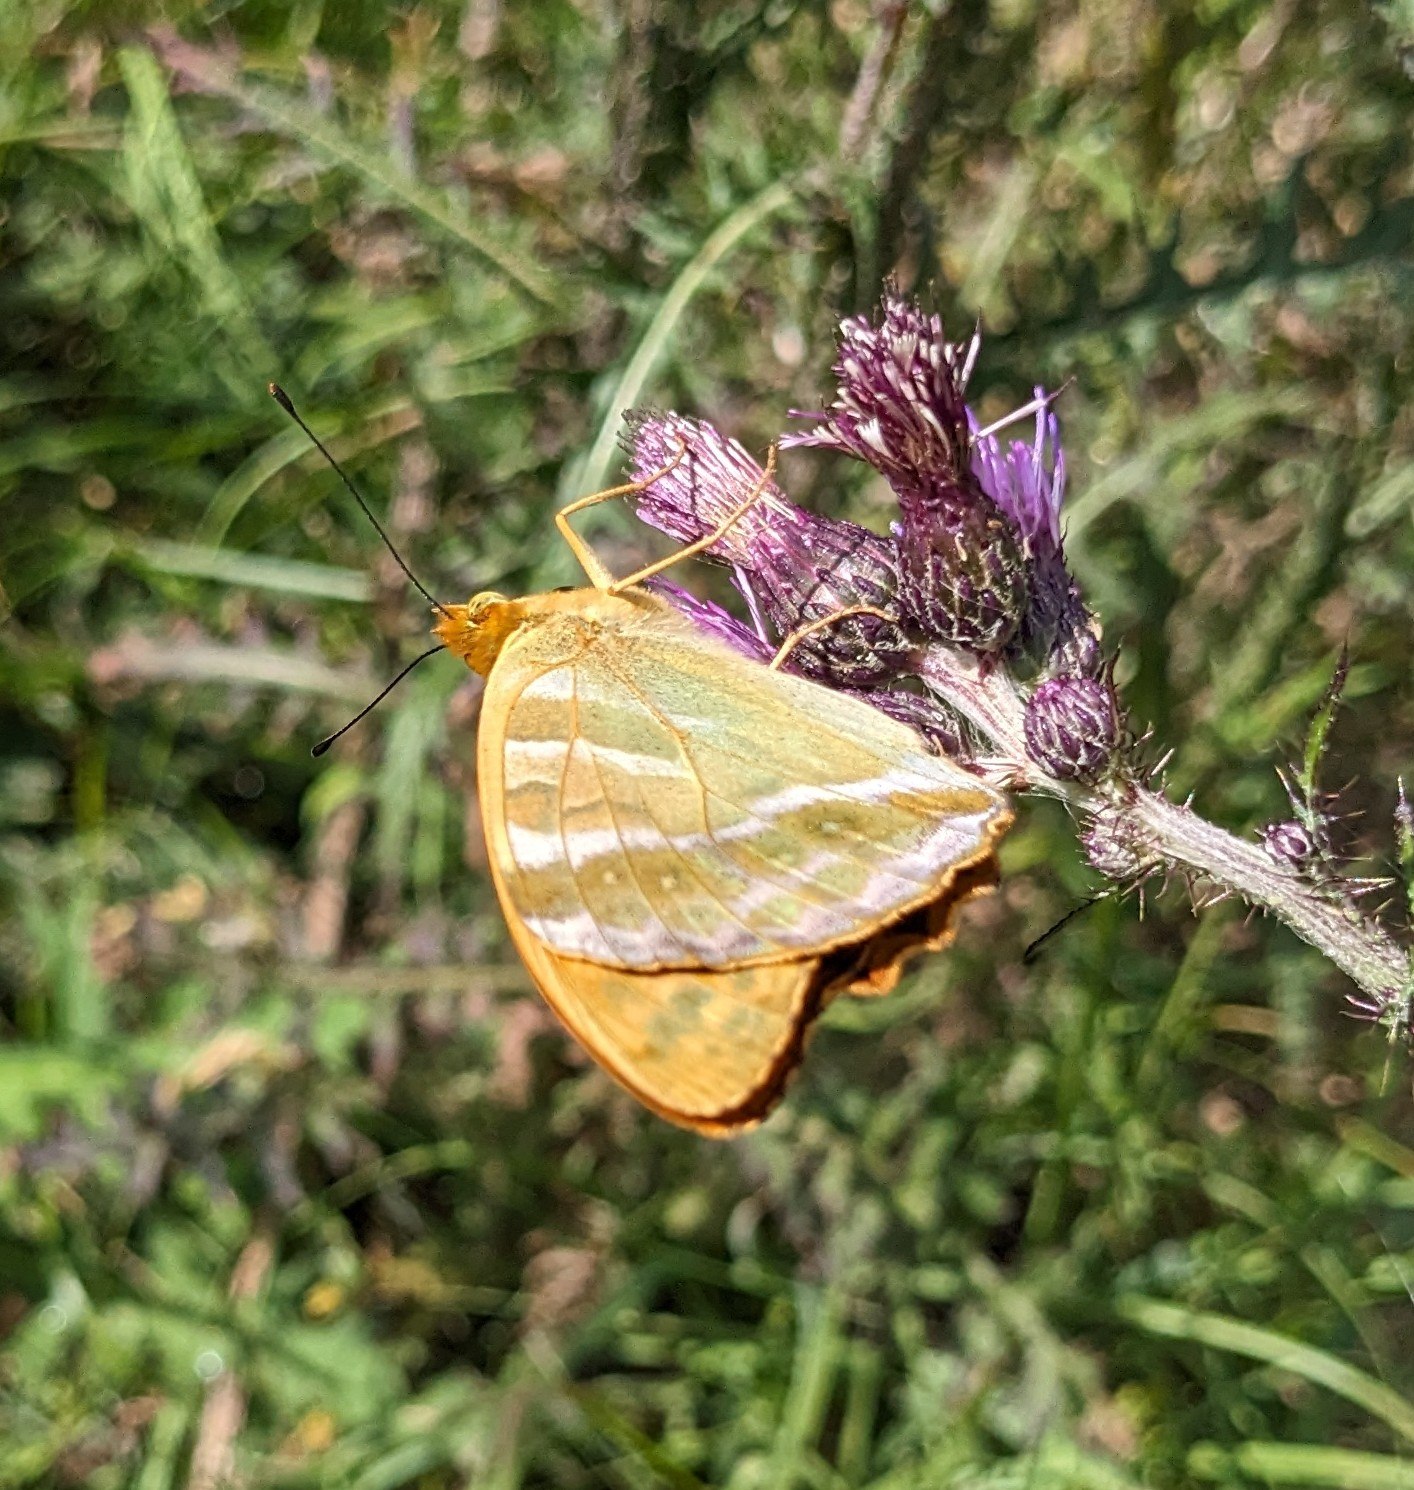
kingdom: Animalia
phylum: Arthropoda
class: Insecta
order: Lepidoptera
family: Nymphalidae
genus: Argynnis
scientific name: Argynnis paphia
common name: Kejserkåbe
